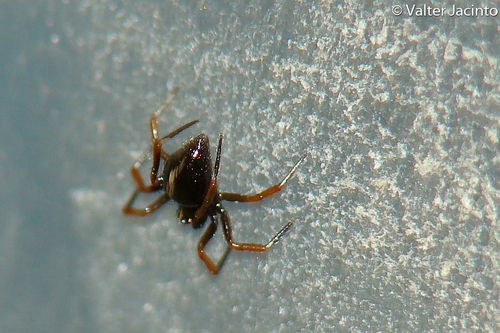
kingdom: Animalia
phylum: Arthropoda
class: Arachnida
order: Araneae
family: Theridiidae
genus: Euryopis
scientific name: Euryopis episinoides
